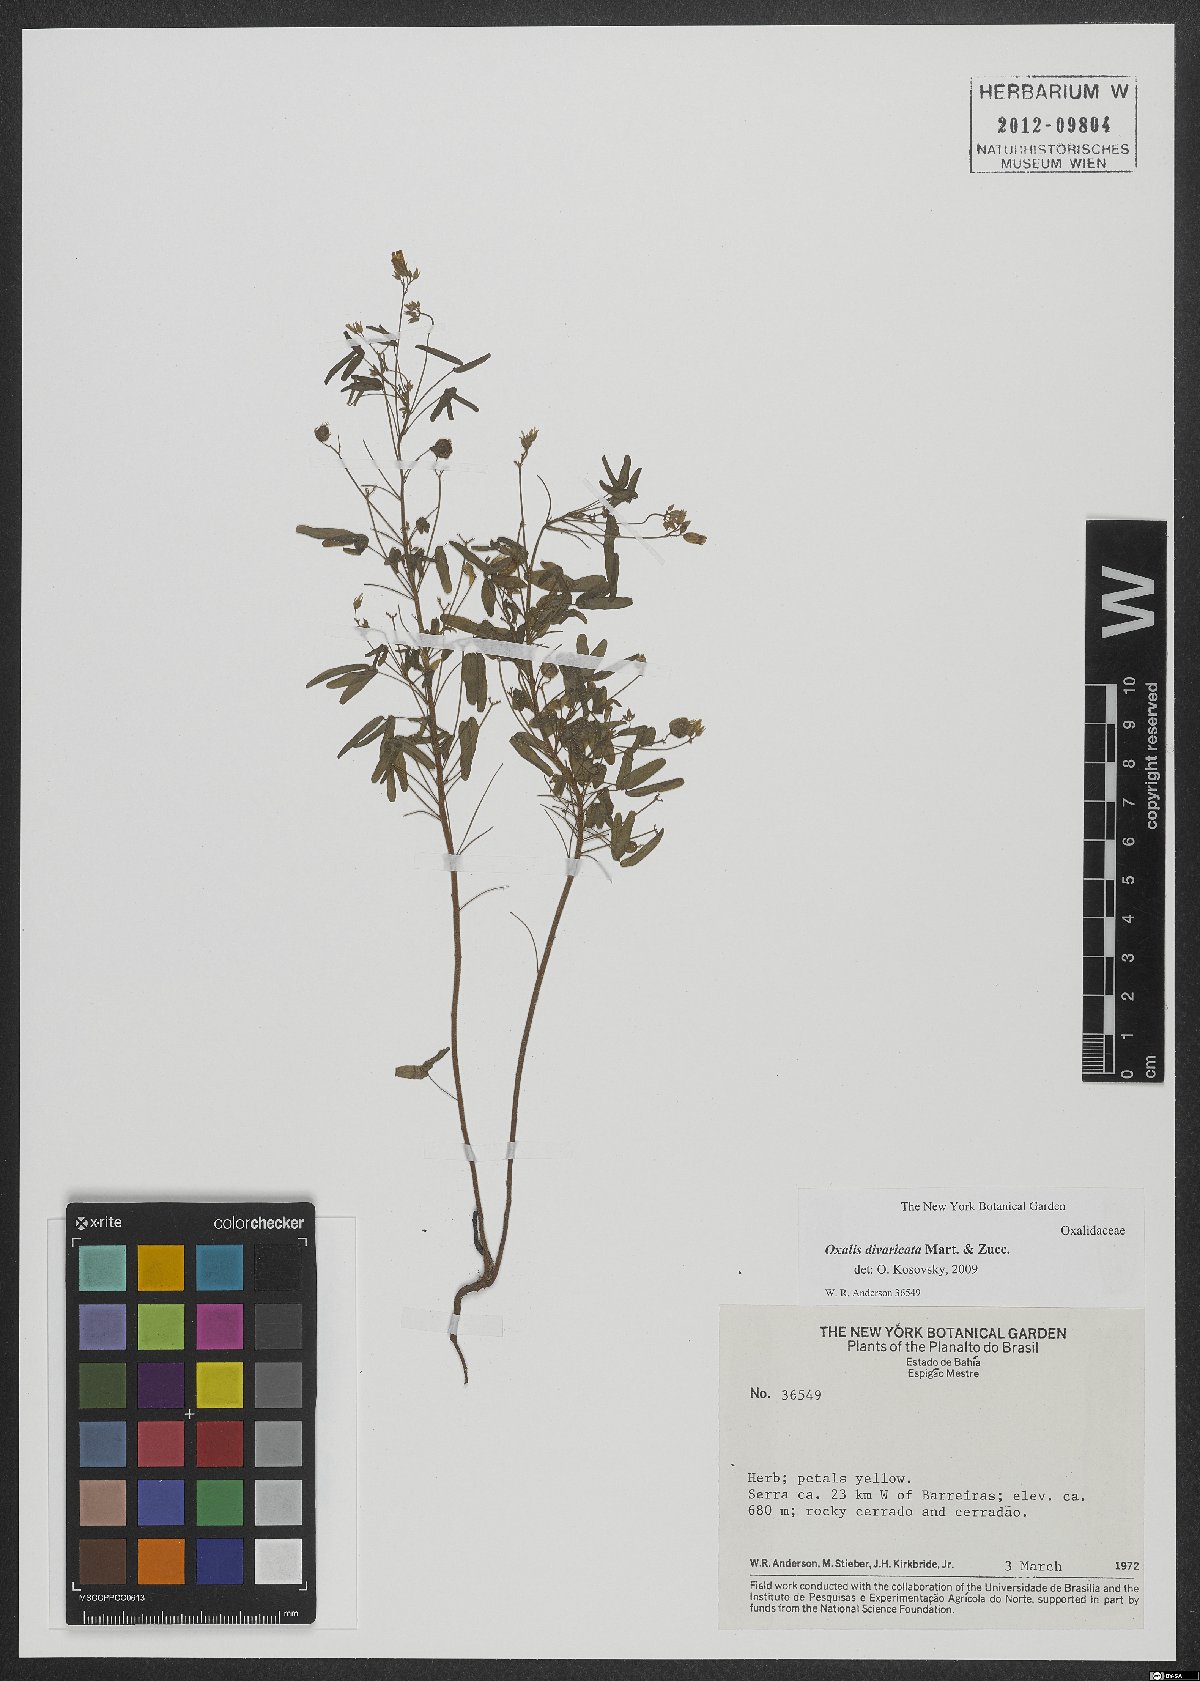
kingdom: Plantae
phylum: Tracheophyta
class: Magnoliopsida
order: Oxalidales
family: Oxalidaceae
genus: Oxalis
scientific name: Oxalis divaricata
